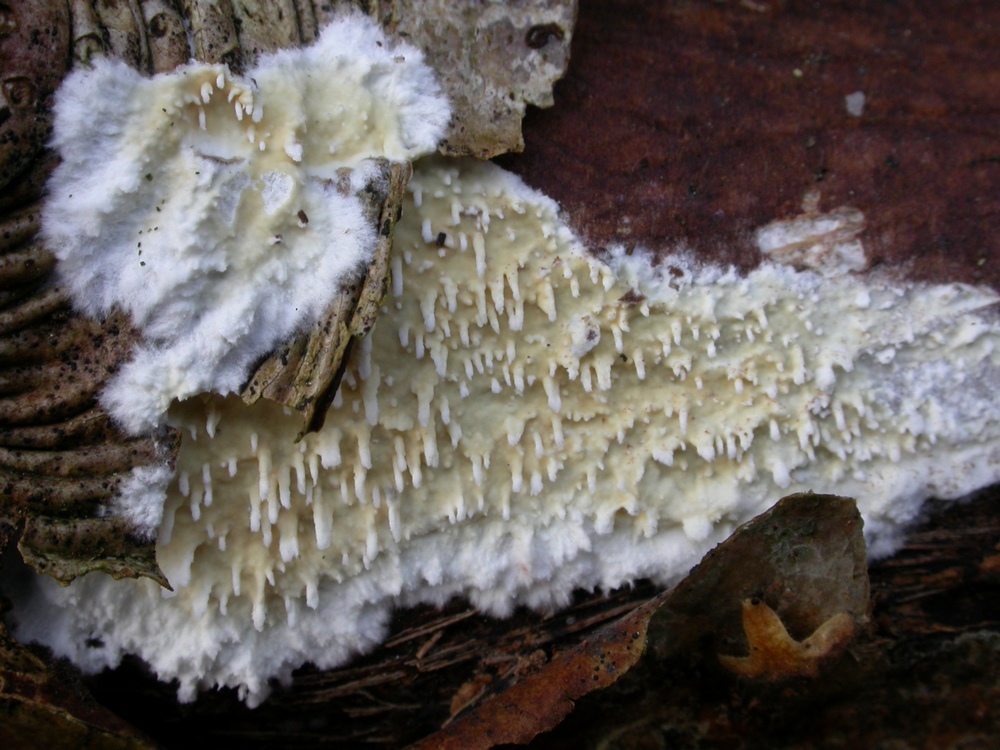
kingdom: Fungi
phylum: Basidiomycota
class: Agaricomycetes
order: Hymenochaetales
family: Schizoporaceae
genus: Xylodon
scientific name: Xylodon radula
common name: grovtandet kalkskind
